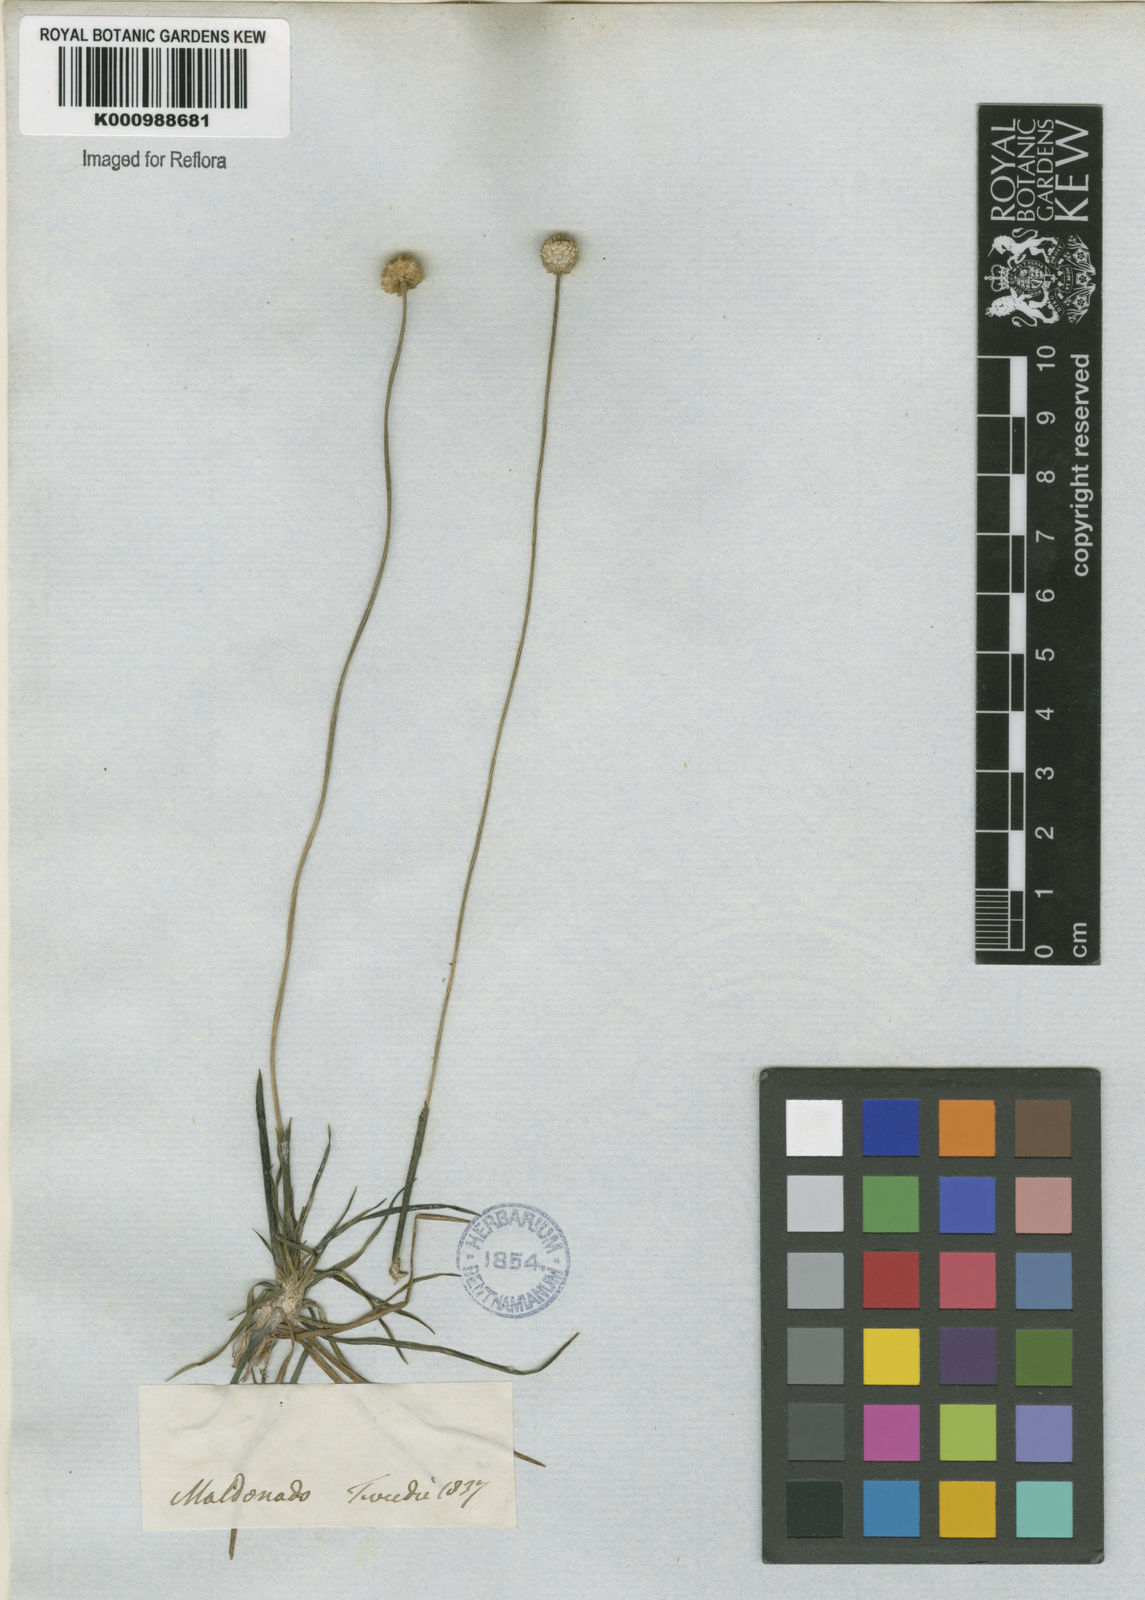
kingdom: Plantae
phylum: Tracheophyta
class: Liliopsida
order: Poales
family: Eriocaulaceae
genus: Syngonanthus
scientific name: Syngonanthus chrysanthus
